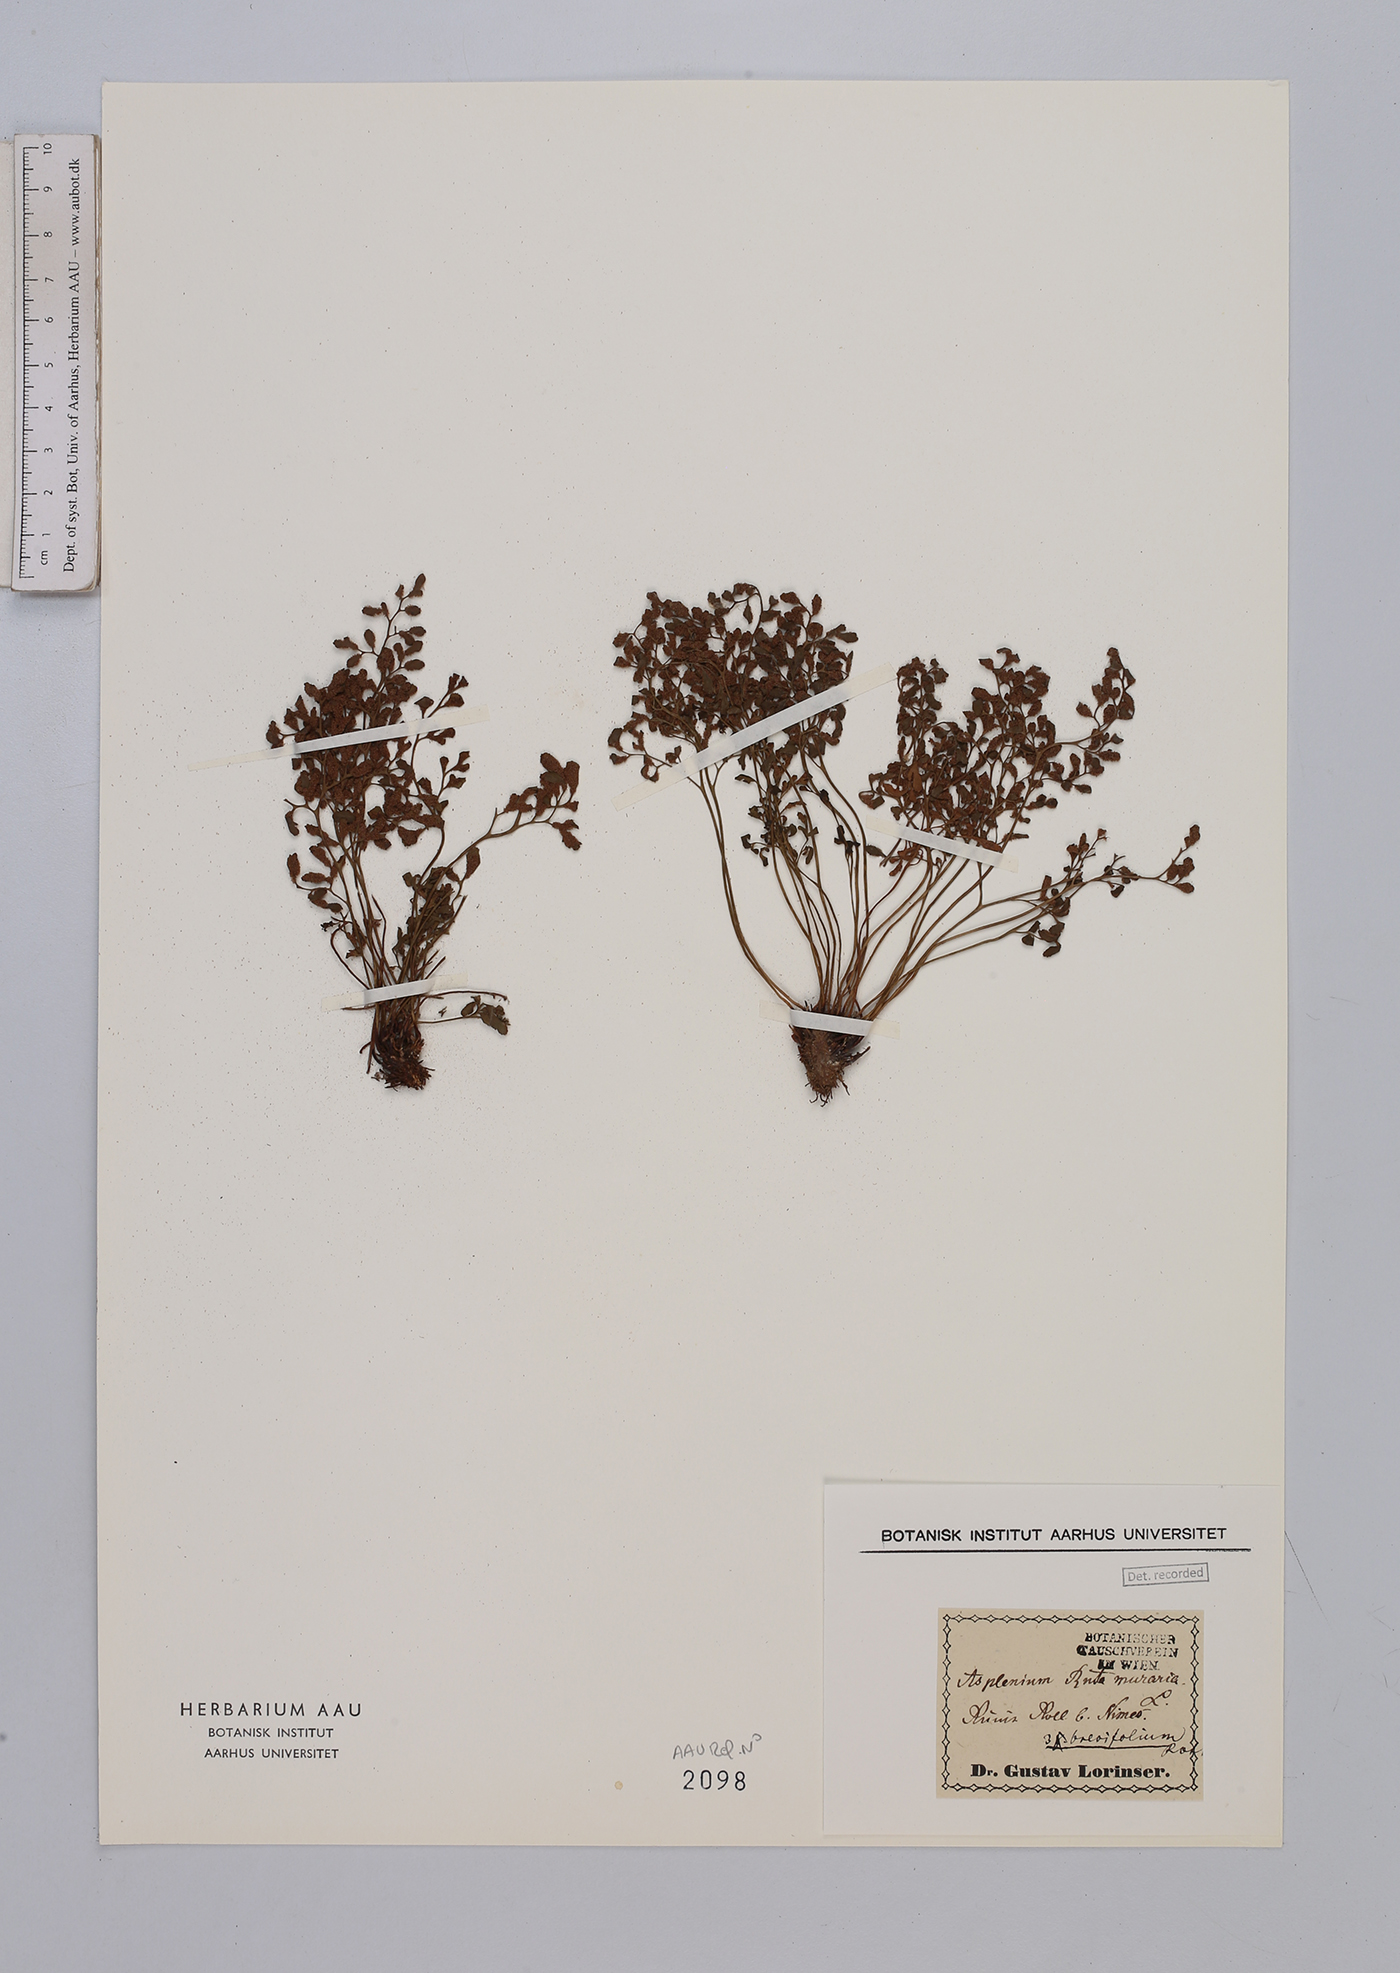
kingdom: Plantae
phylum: Tracheophyta
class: Polypodiopsida
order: Polypodiales
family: Aspleniaceae
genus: Asplenium
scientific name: Asplenium ruta-muraria
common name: Wall-rue
